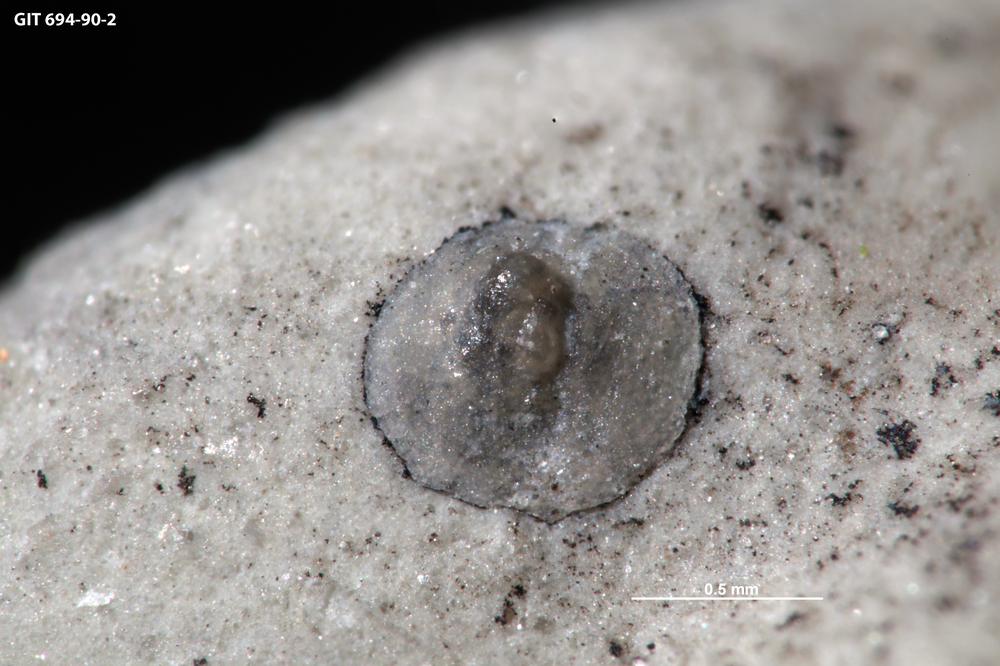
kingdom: Animalia
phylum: Brachiopoda
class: Craniata
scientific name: Craniata
